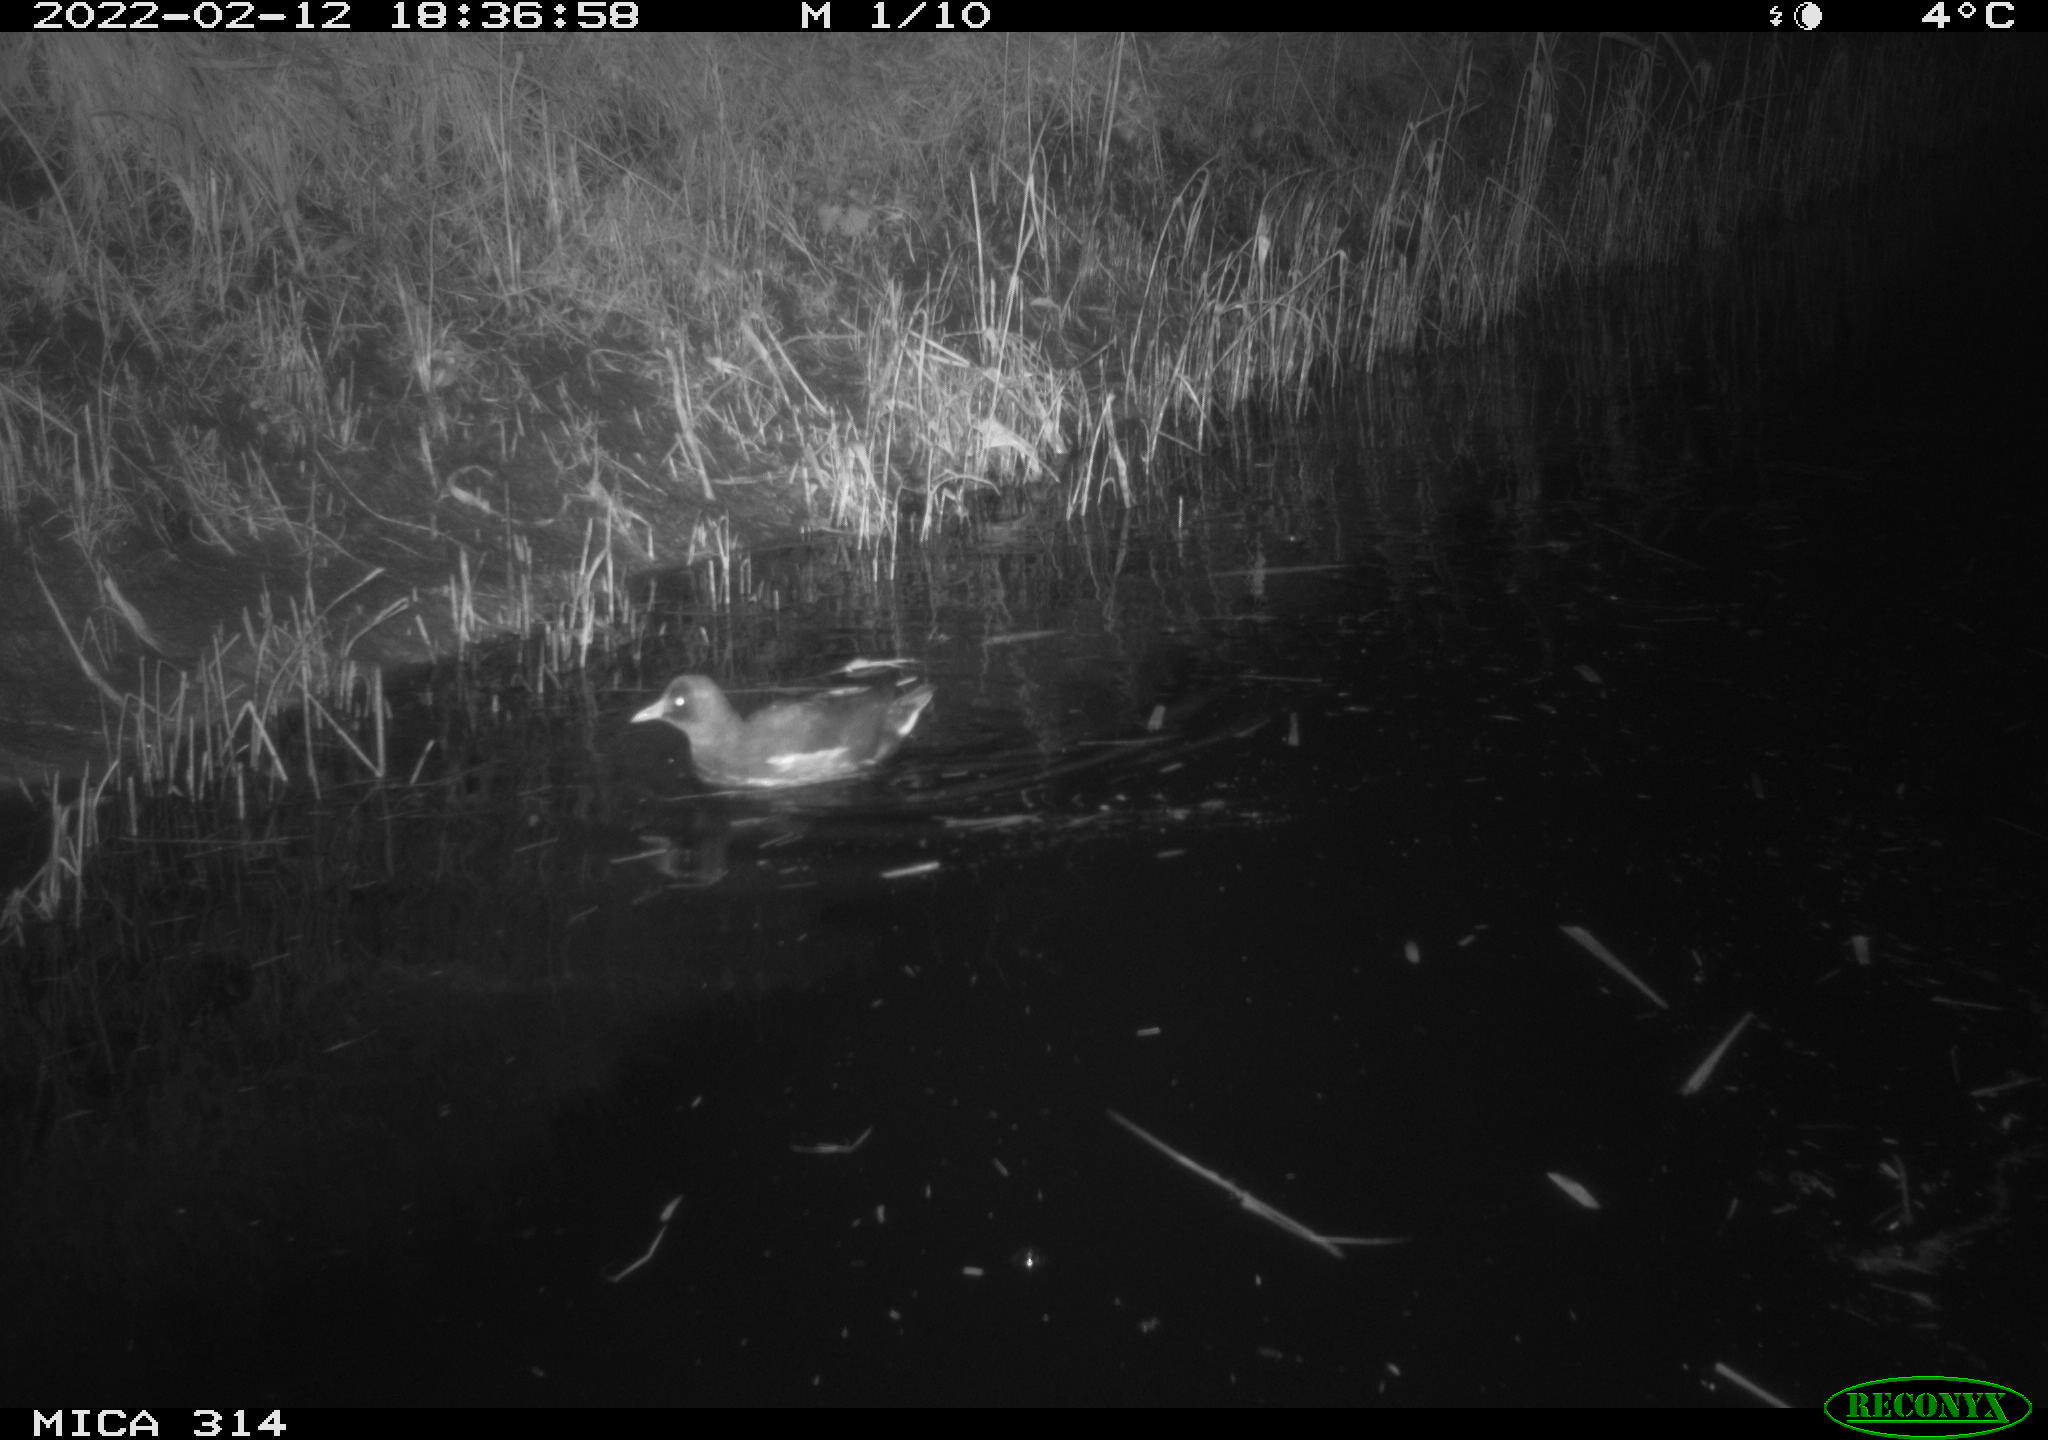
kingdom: Animalia
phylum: Chordata
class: Aves
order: Gruiformes
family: Rallidae
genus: Gallinula
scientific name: Gallinula chloropus
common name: Common moorhen
